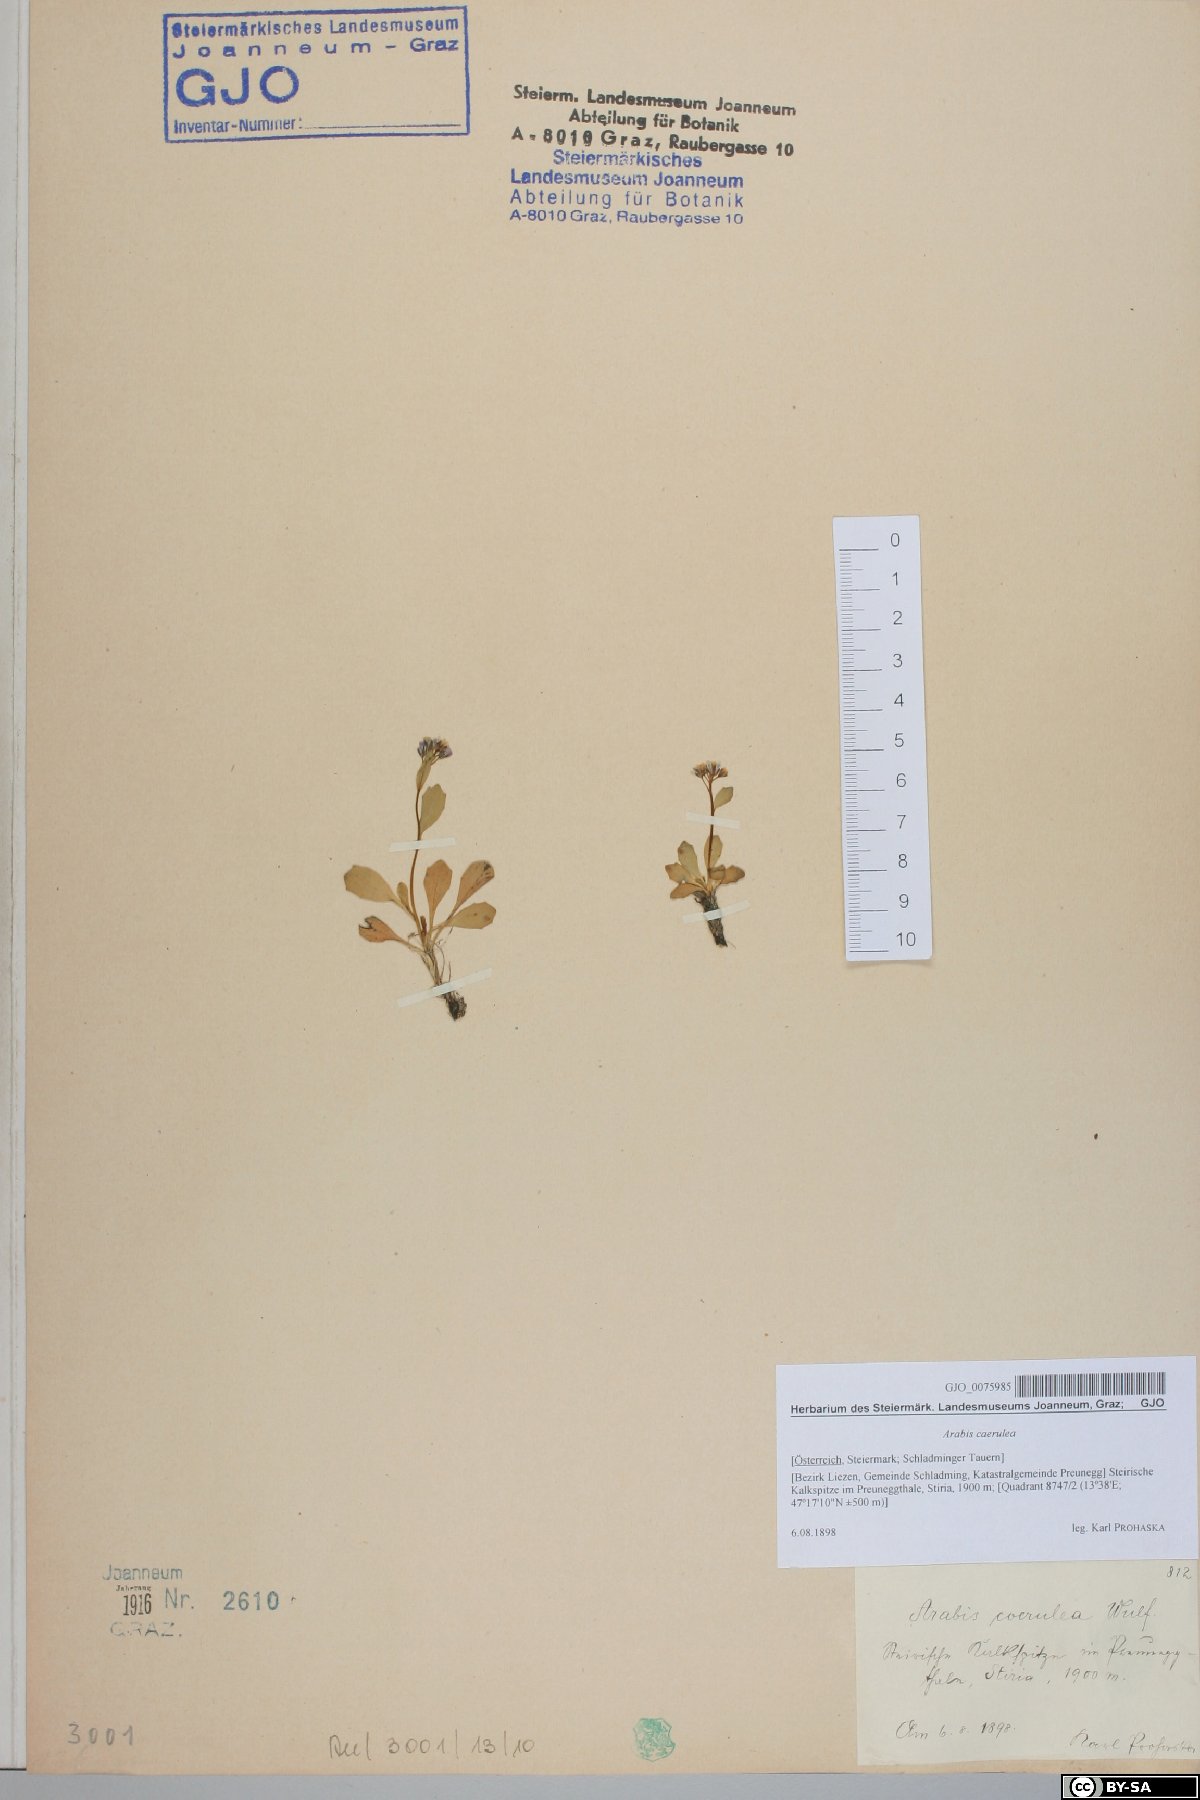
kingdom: Plantae
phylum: Tracheophyta
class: Magnoliopsida
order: Brassicales
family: Brassicaceae
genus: Arabis
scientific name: Arabis caerulea
